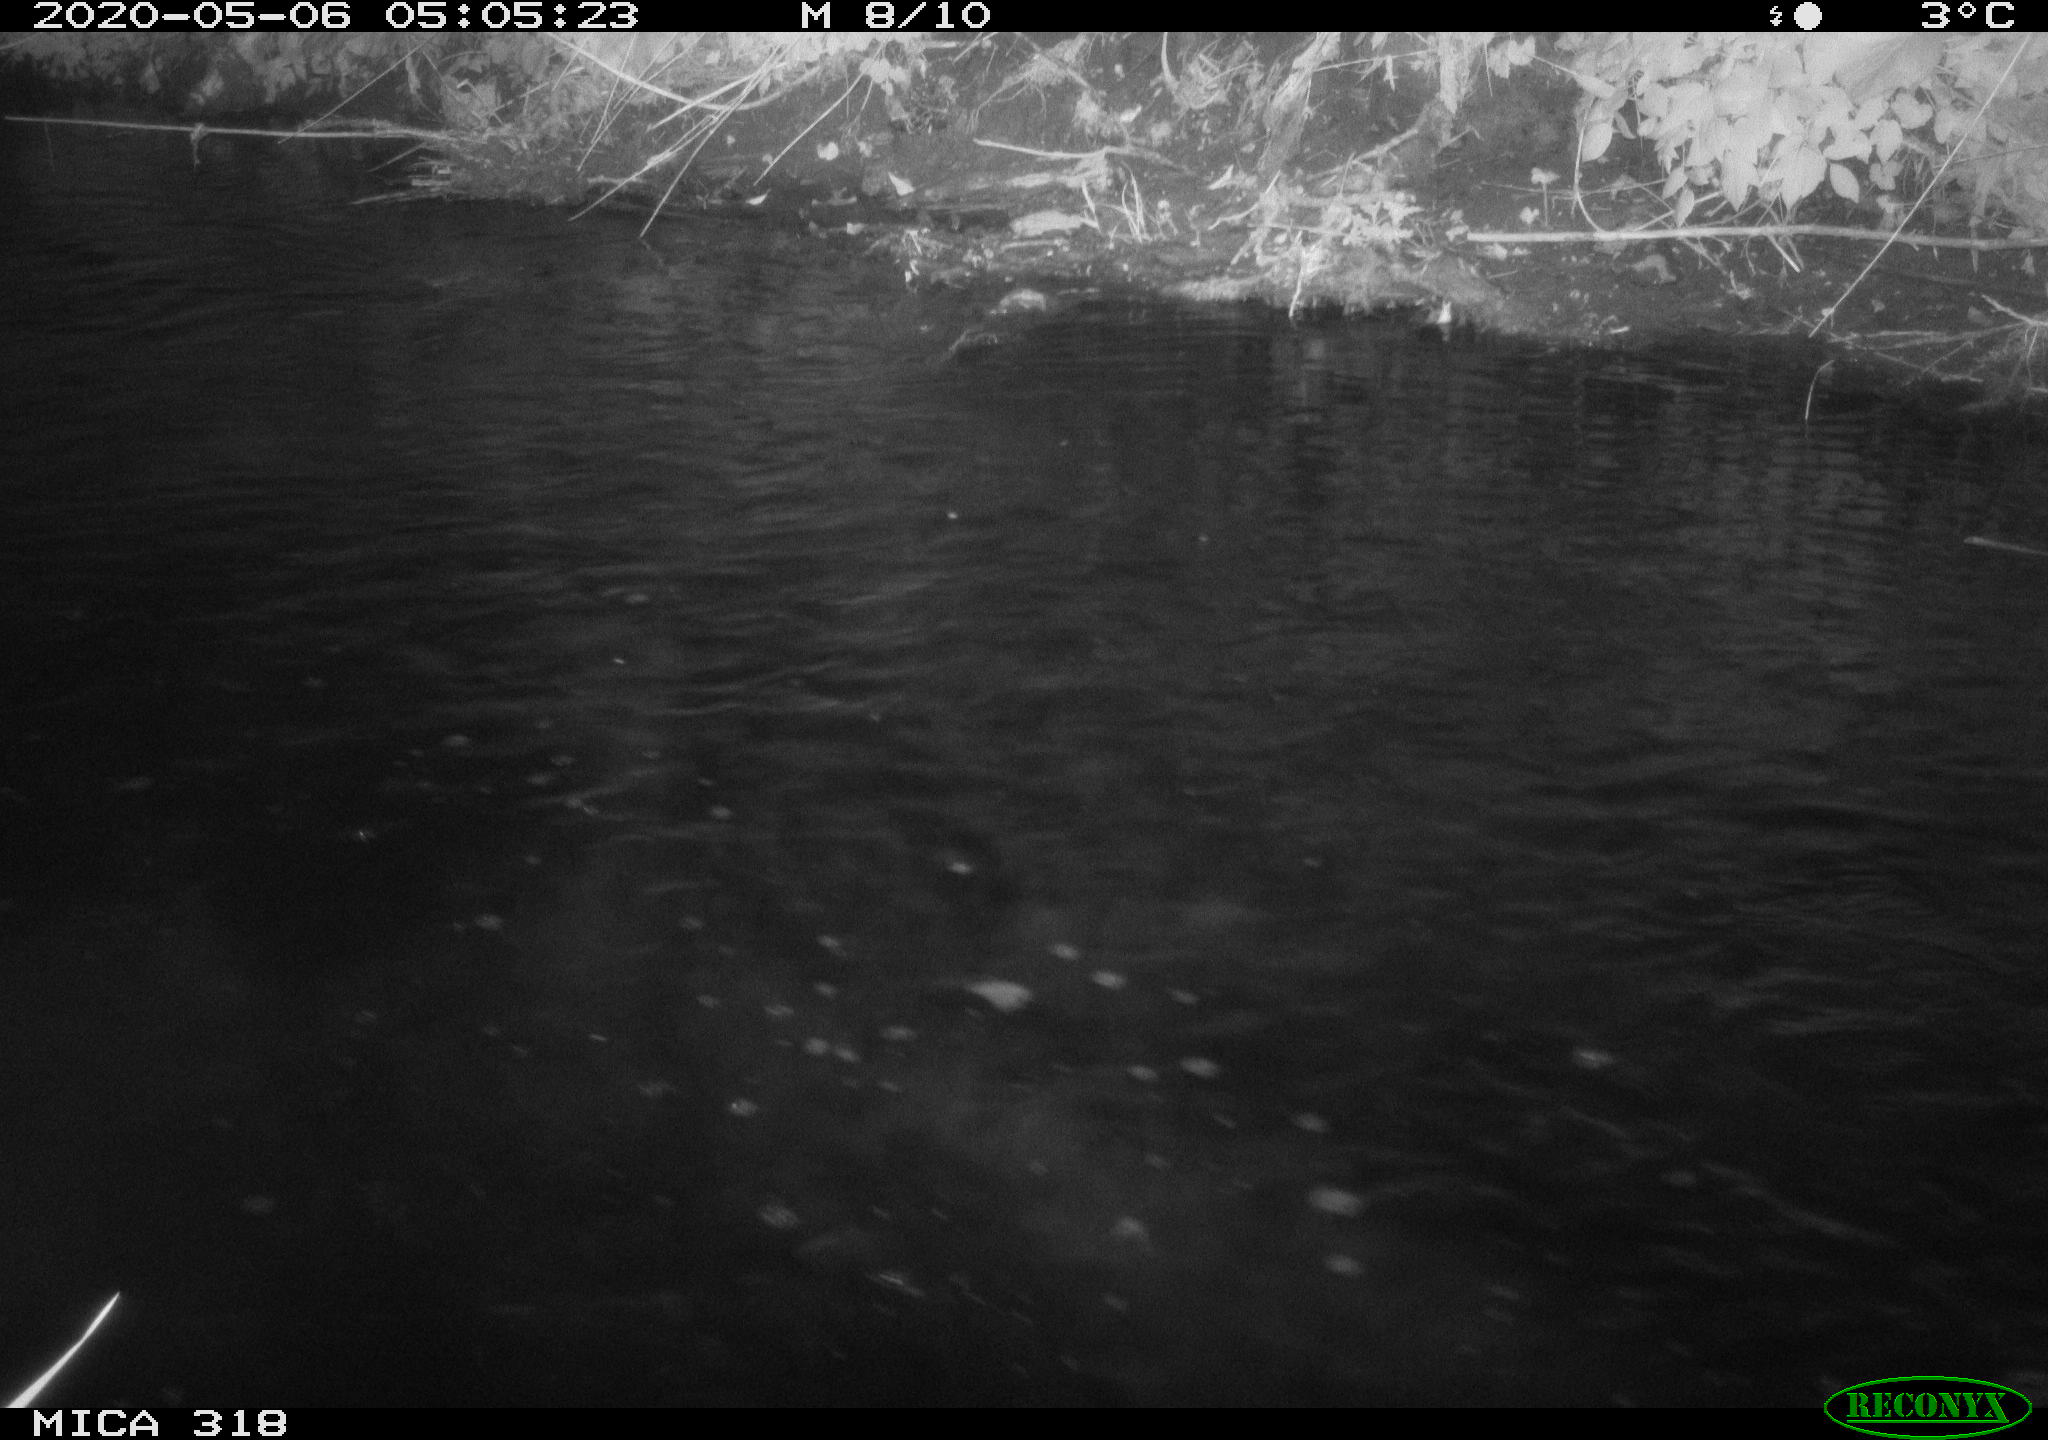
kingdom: Animalia
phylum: Chordata
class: Aves
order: Gruiformes
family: Rallidae
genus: Gallinula
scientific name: Gallinula chloropus
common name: Common moorhen
